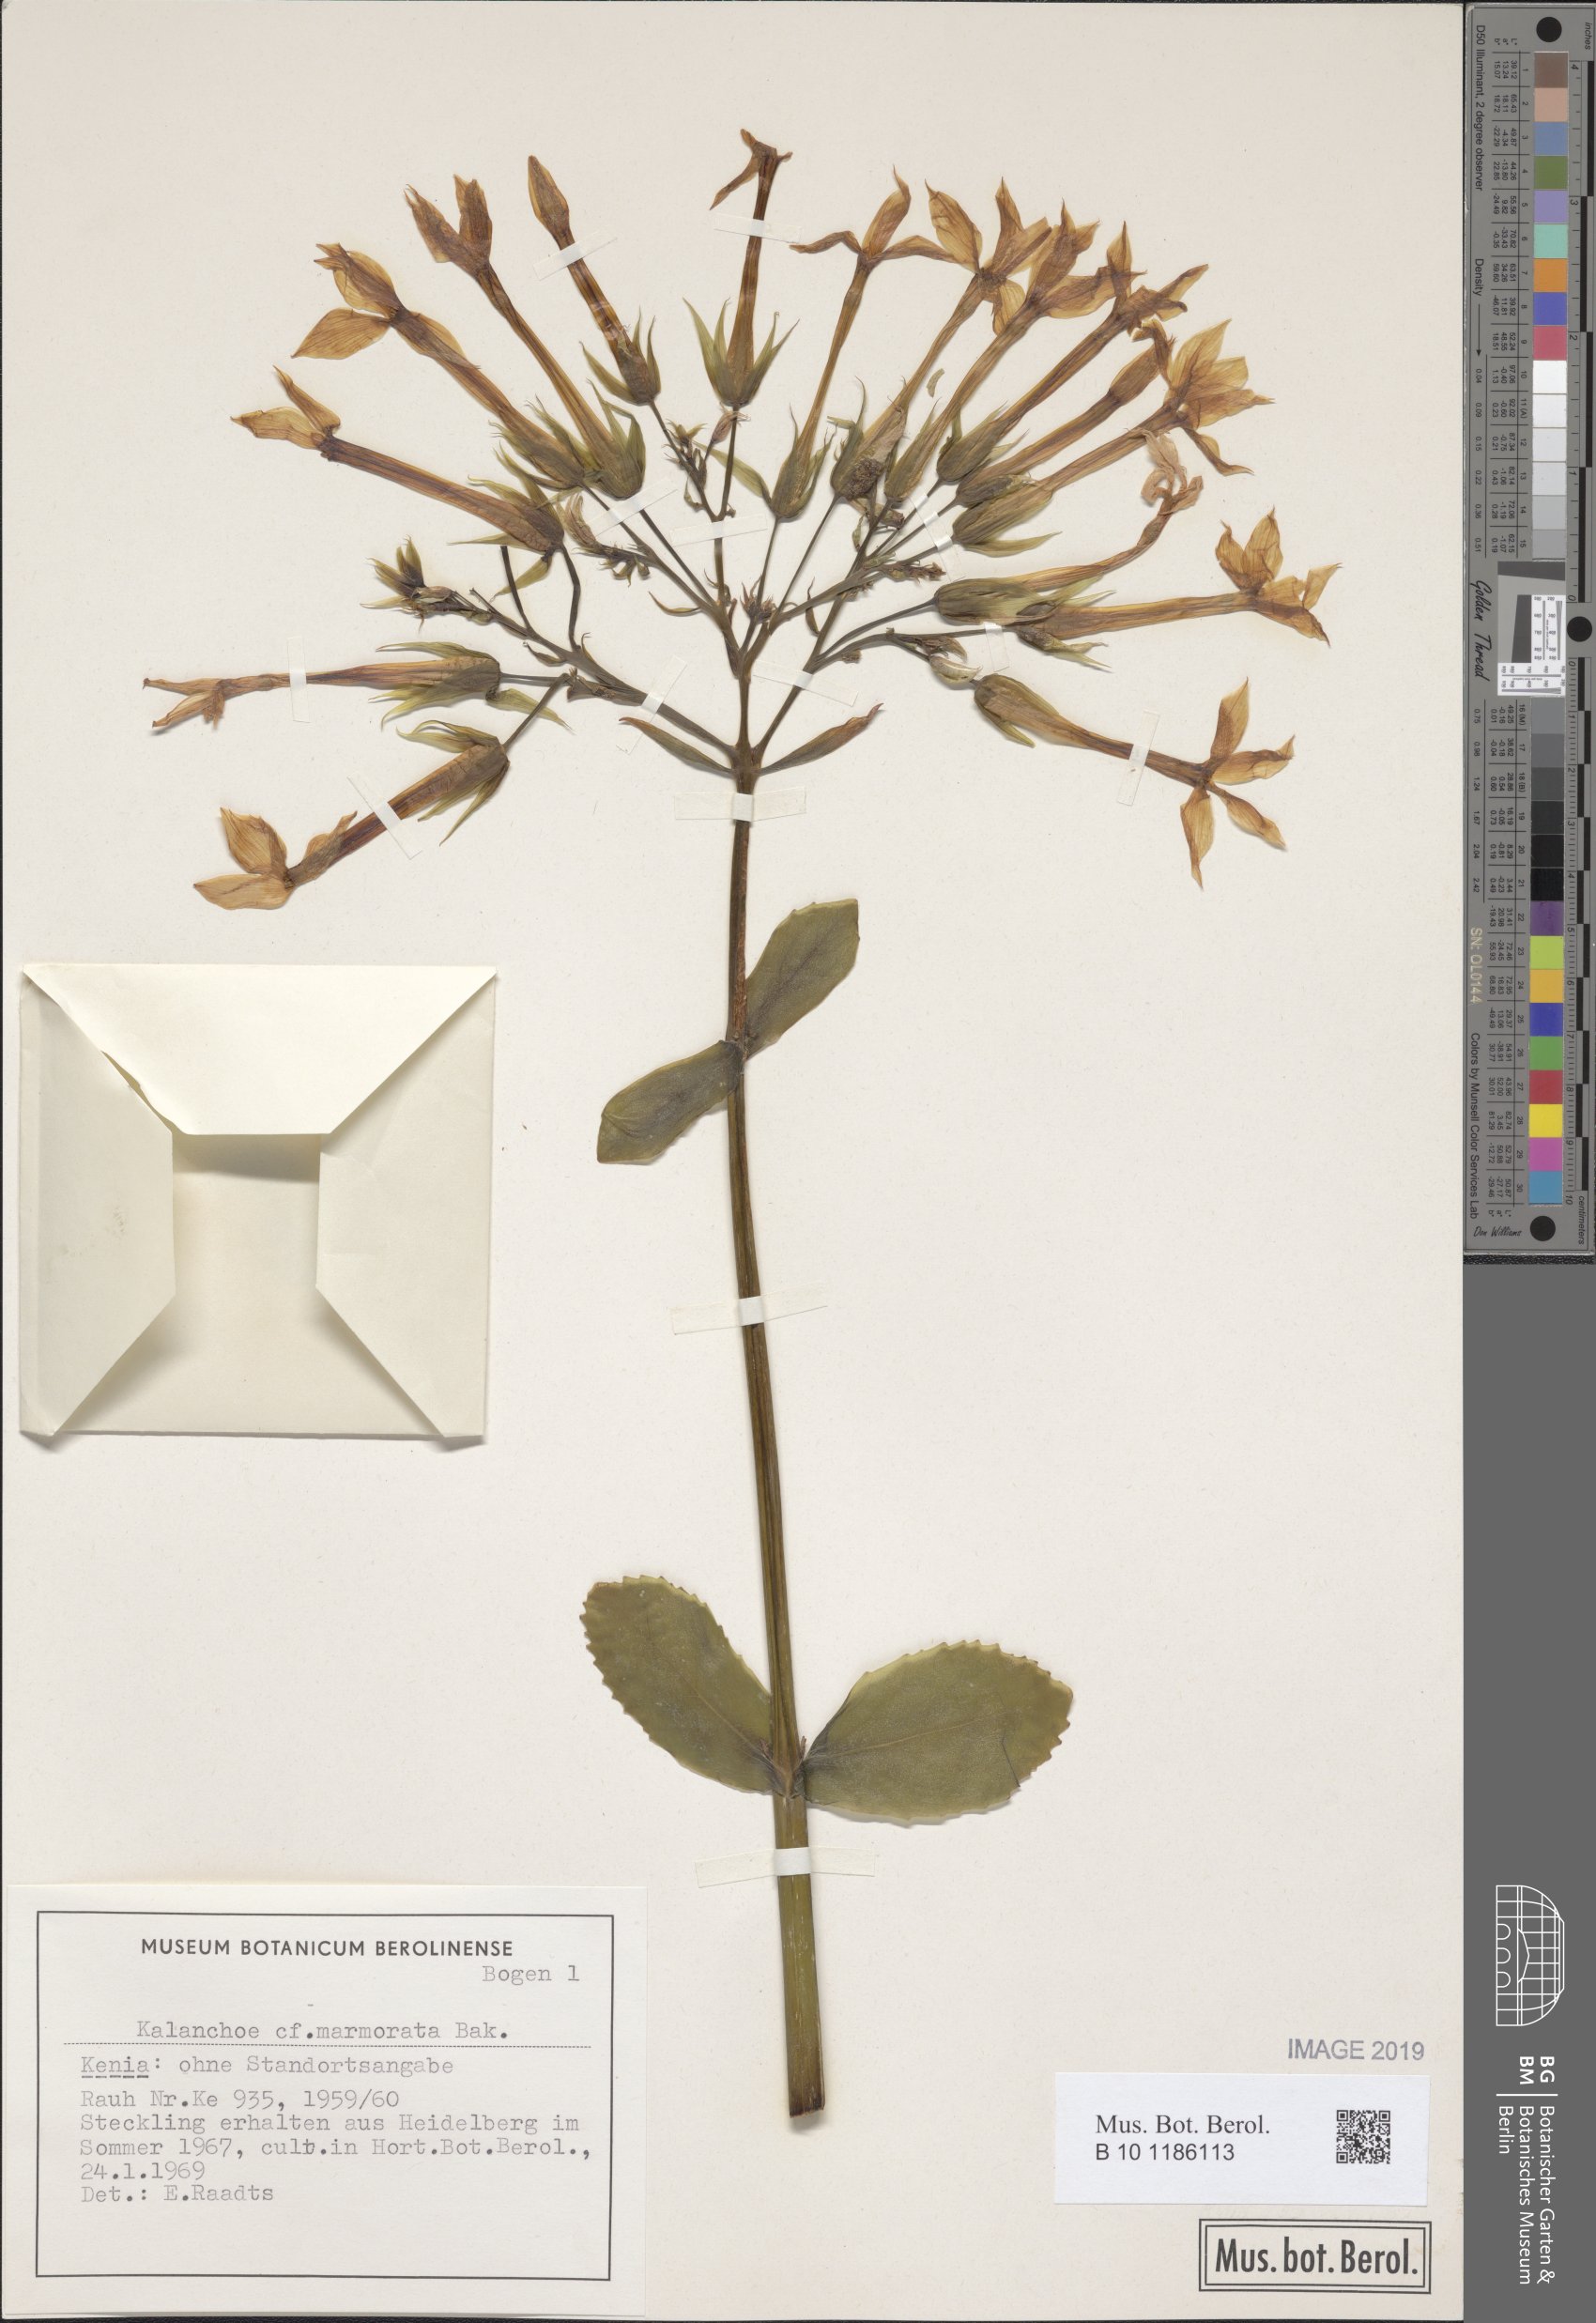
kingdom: Plantae
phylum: Tracheophyta
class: Magnoliopsida
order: Saxifragales
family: Crassulaceae
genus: Kalanchoe
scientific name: Kalanchoe marmorata
